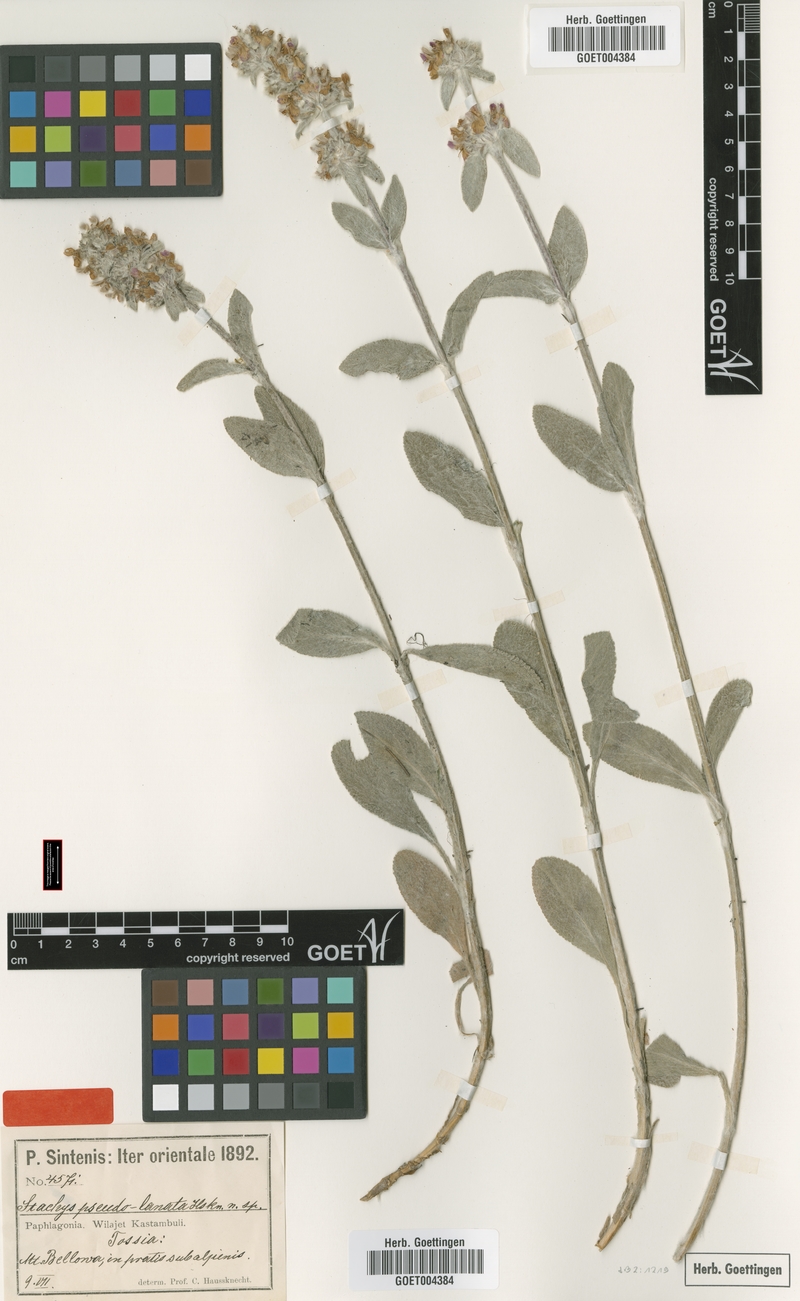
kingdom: Plantae
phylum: Tracheophyta
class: Magnoliopsida
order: Lamiales
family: Lamiaceae
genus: Stachys
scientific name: Stachys
